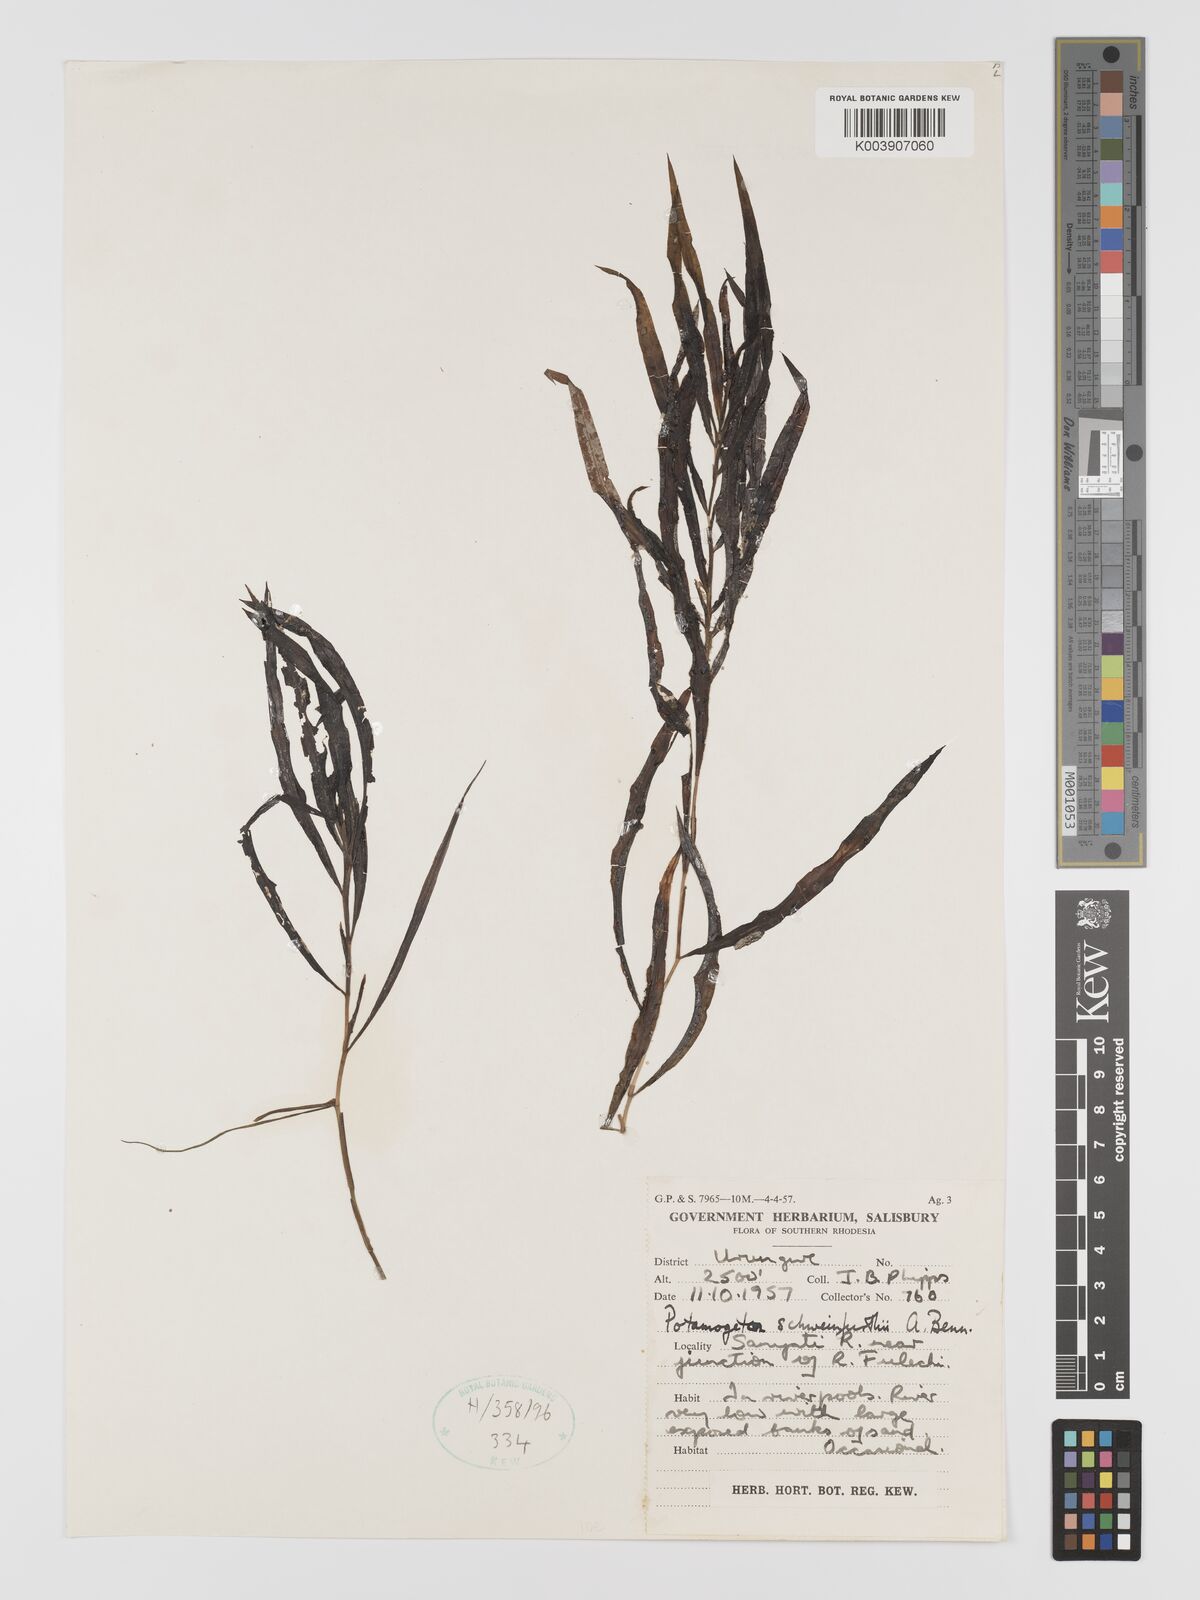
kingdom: Plantae
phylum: Tracheophyta
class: Liliopsida
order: Alismatales
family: Potamogetonaceae
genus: Potamogeton
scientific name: Potamogeton schweinfurthii
